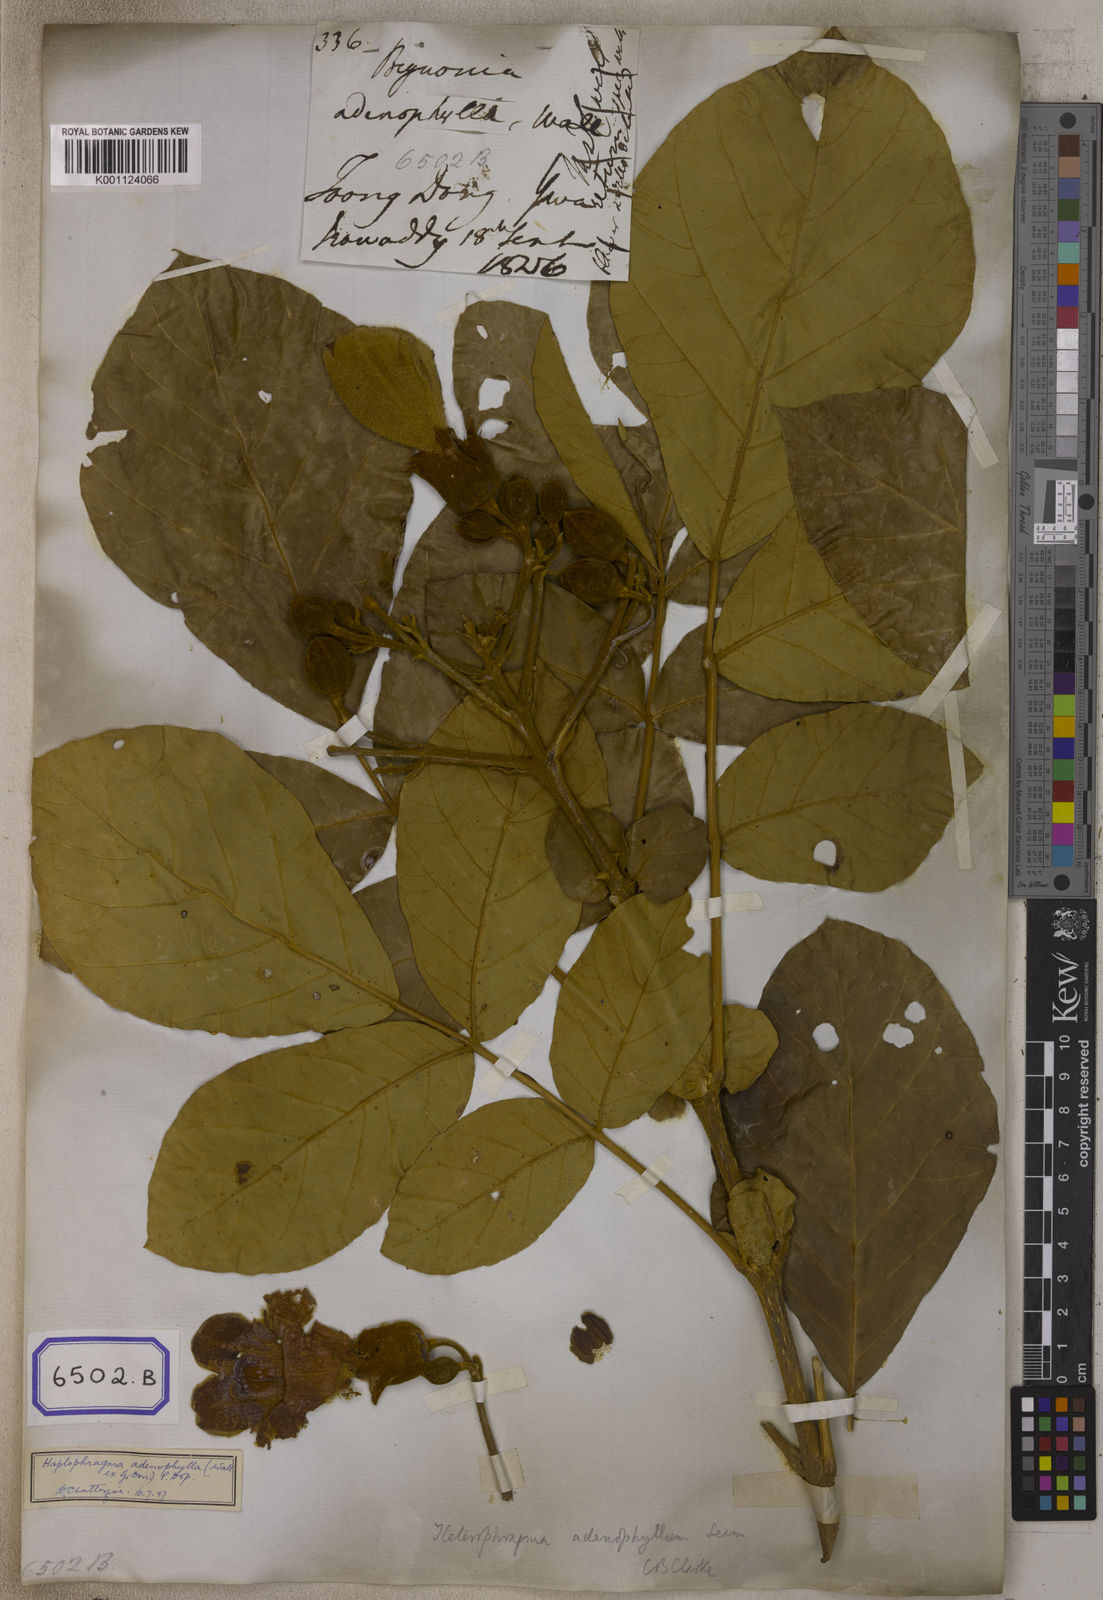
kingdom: Plantae
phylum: Tracheophyta
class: Magnoliopsida
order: Lamiales
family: Bignoniaceae
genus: Bignonia
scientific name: Bignonia
